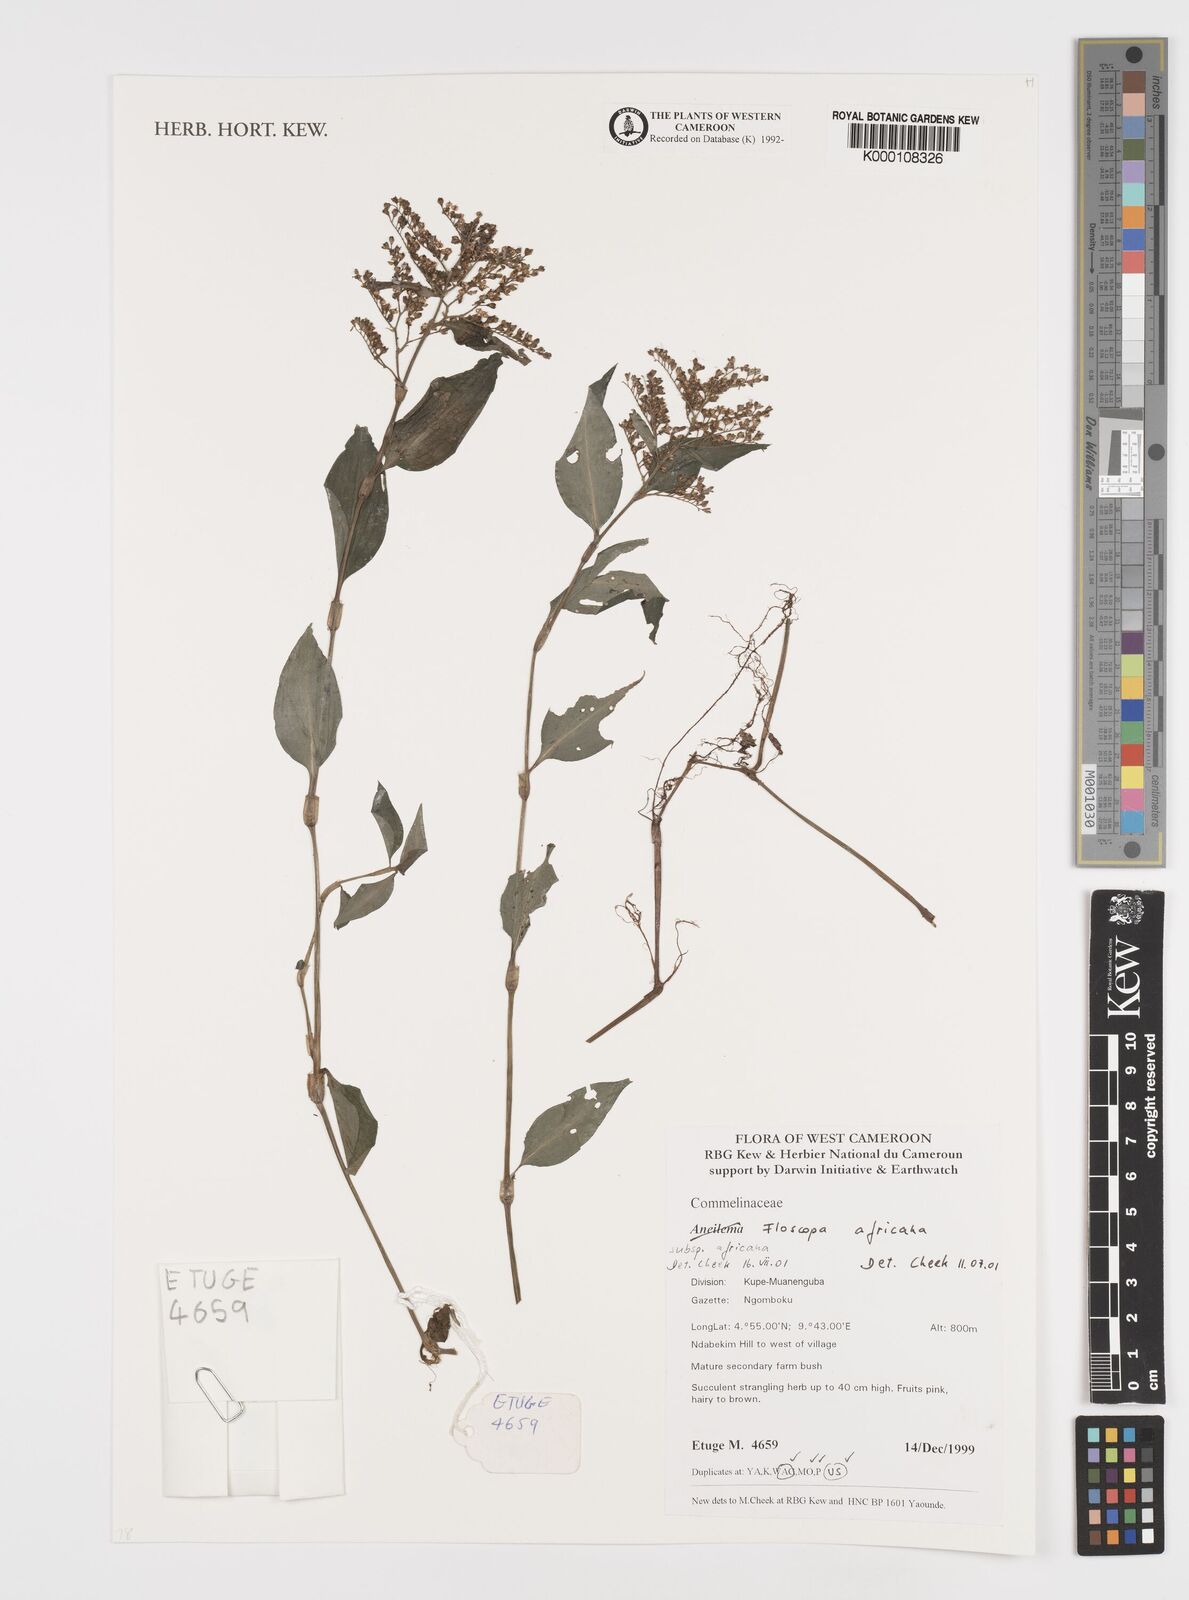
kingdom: Plantae
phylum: Tracheophyta
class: Liliopsida
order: Commelinales
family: Commelinaceae
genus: Floscopa
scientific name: Floscopa africana
